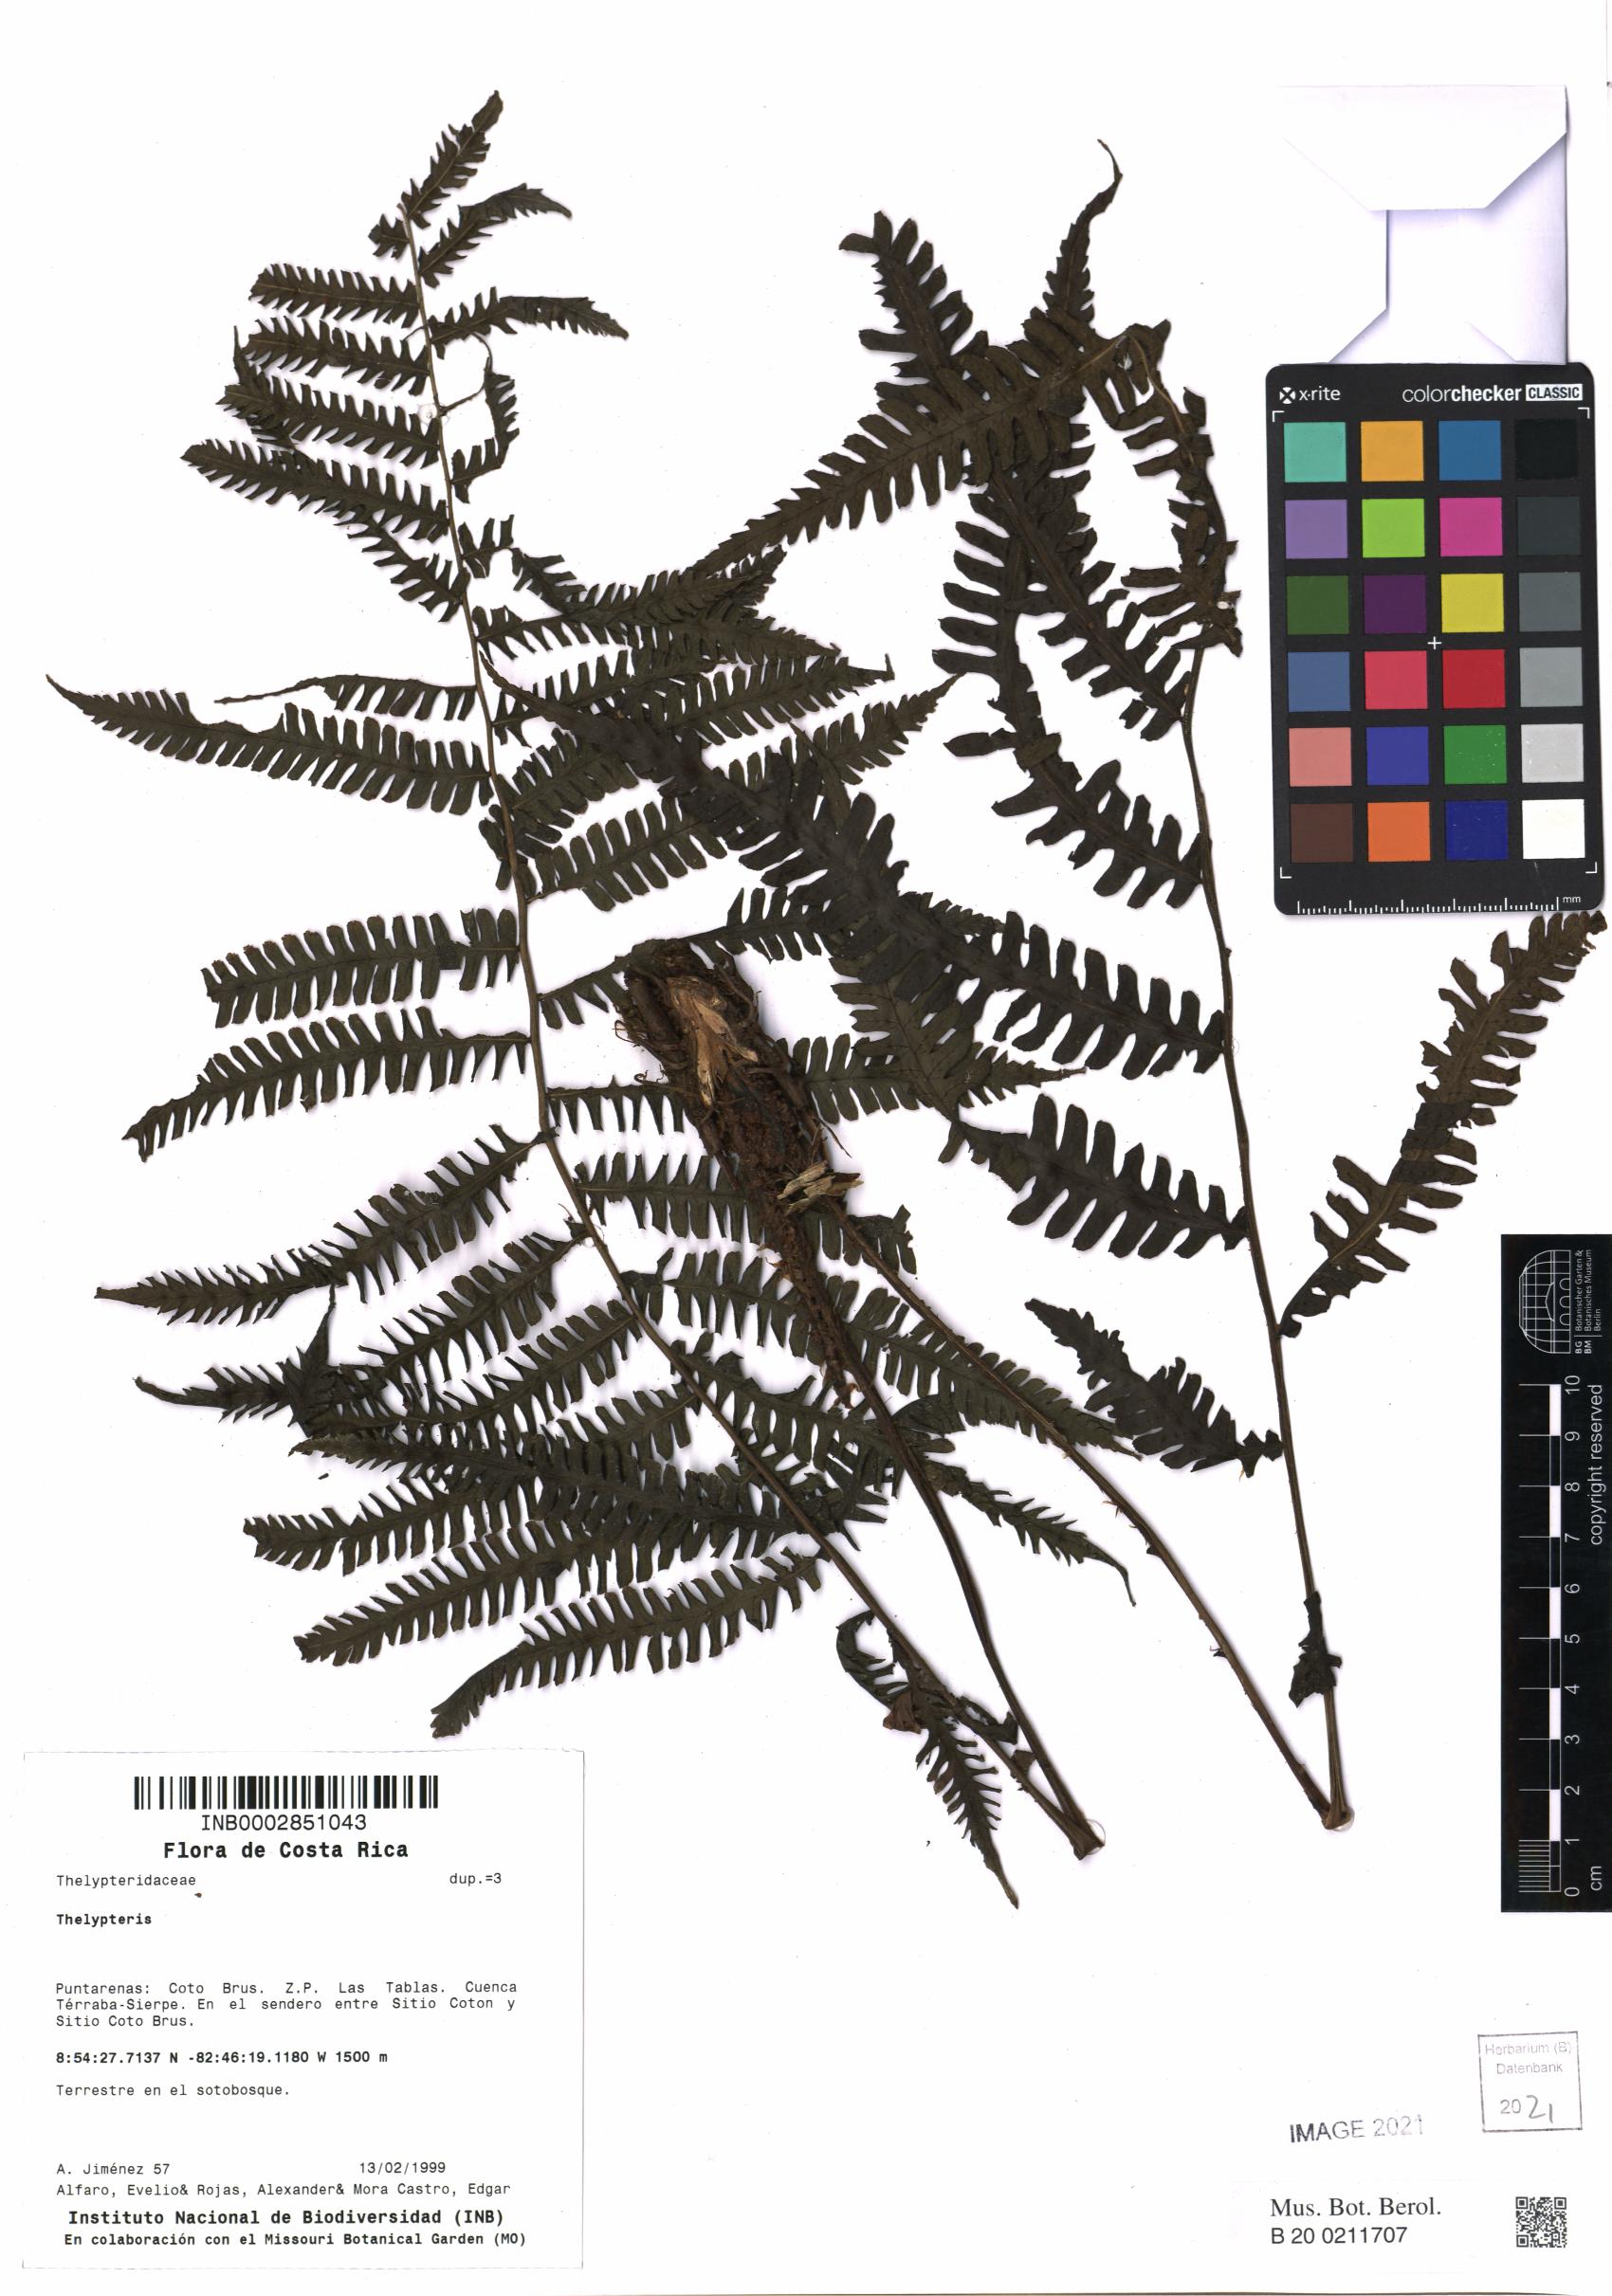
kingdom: Plantae
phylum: Tracheophyta
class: Polypodiopsida
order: Polypodiales
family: Thelypteridaceae
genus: Thelypteris
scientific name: Thelypteris
